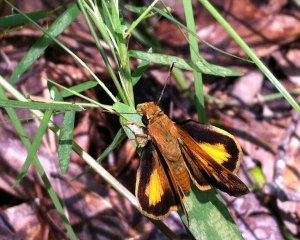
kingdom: Animalia
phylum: Arthropoda
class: Insecta
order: Lepidoptera
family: Hesperiidae
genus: Lon
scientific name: Lon zabulon
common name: Zabulon Skipper
